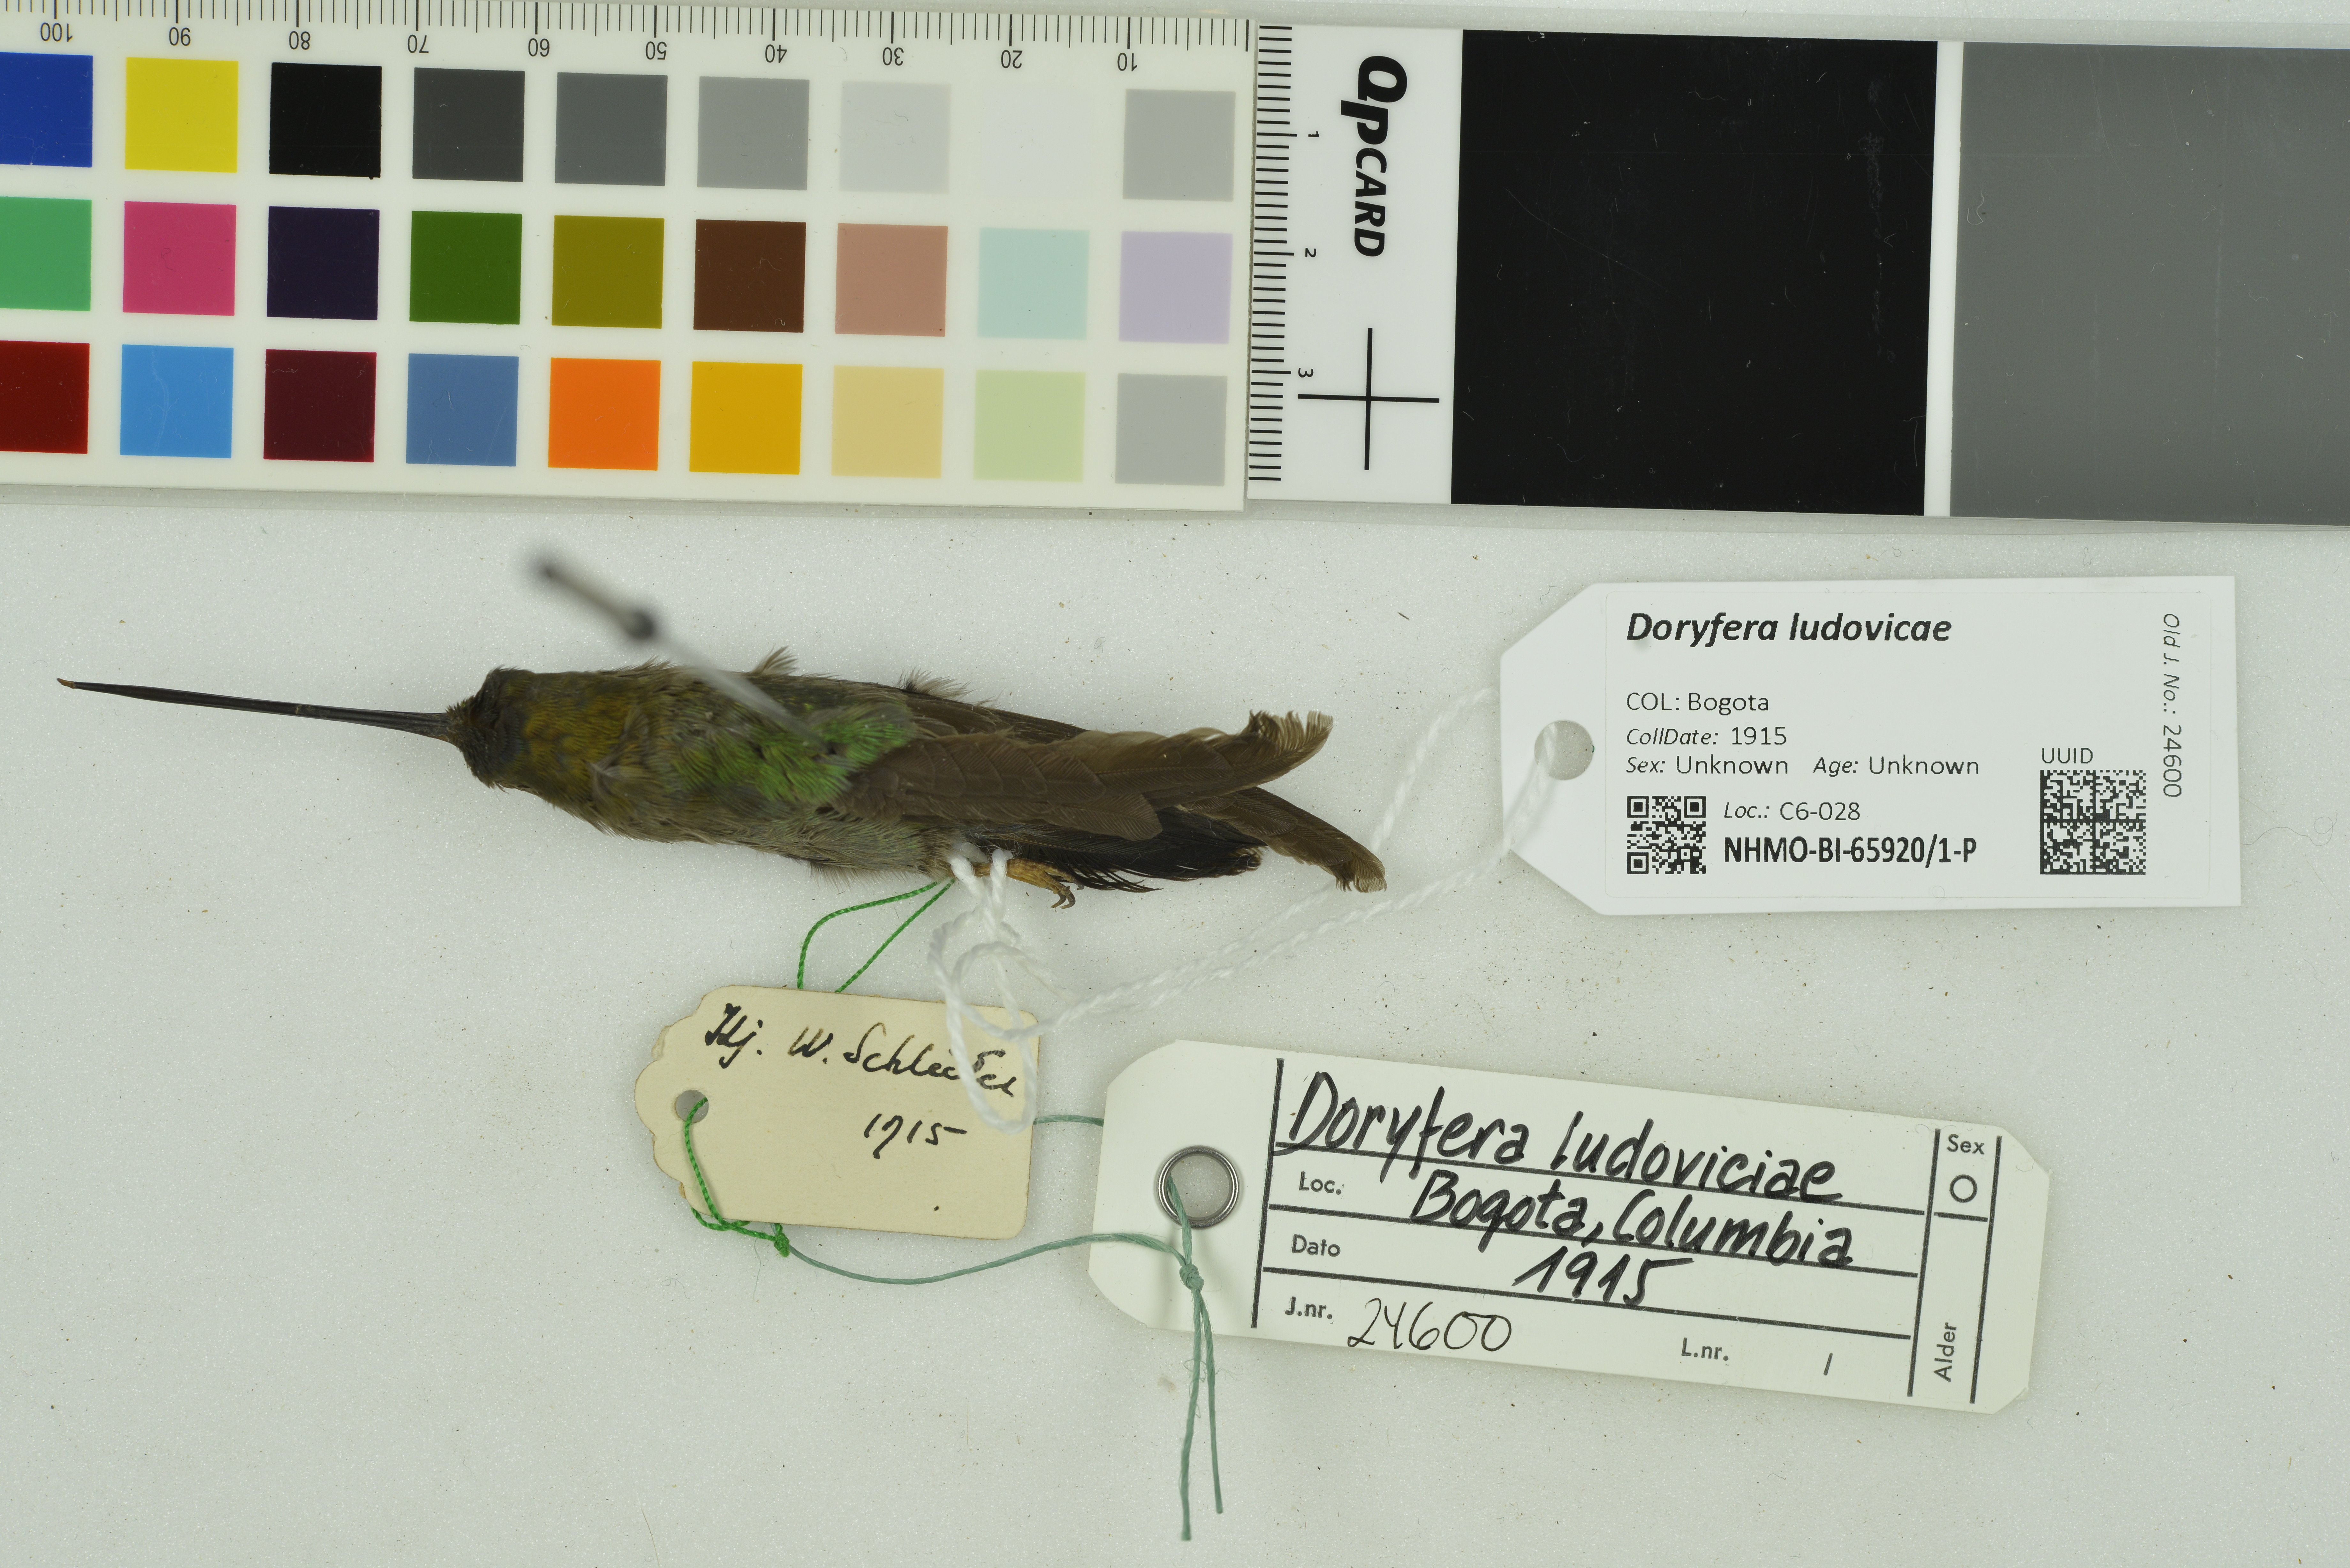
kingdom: Animalia
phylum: Chordata
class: Aves
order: Apodiformes
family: Trochilidae
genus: Doryfera
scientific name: Doryfera ludovicae
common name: Green-fronted lancebill
